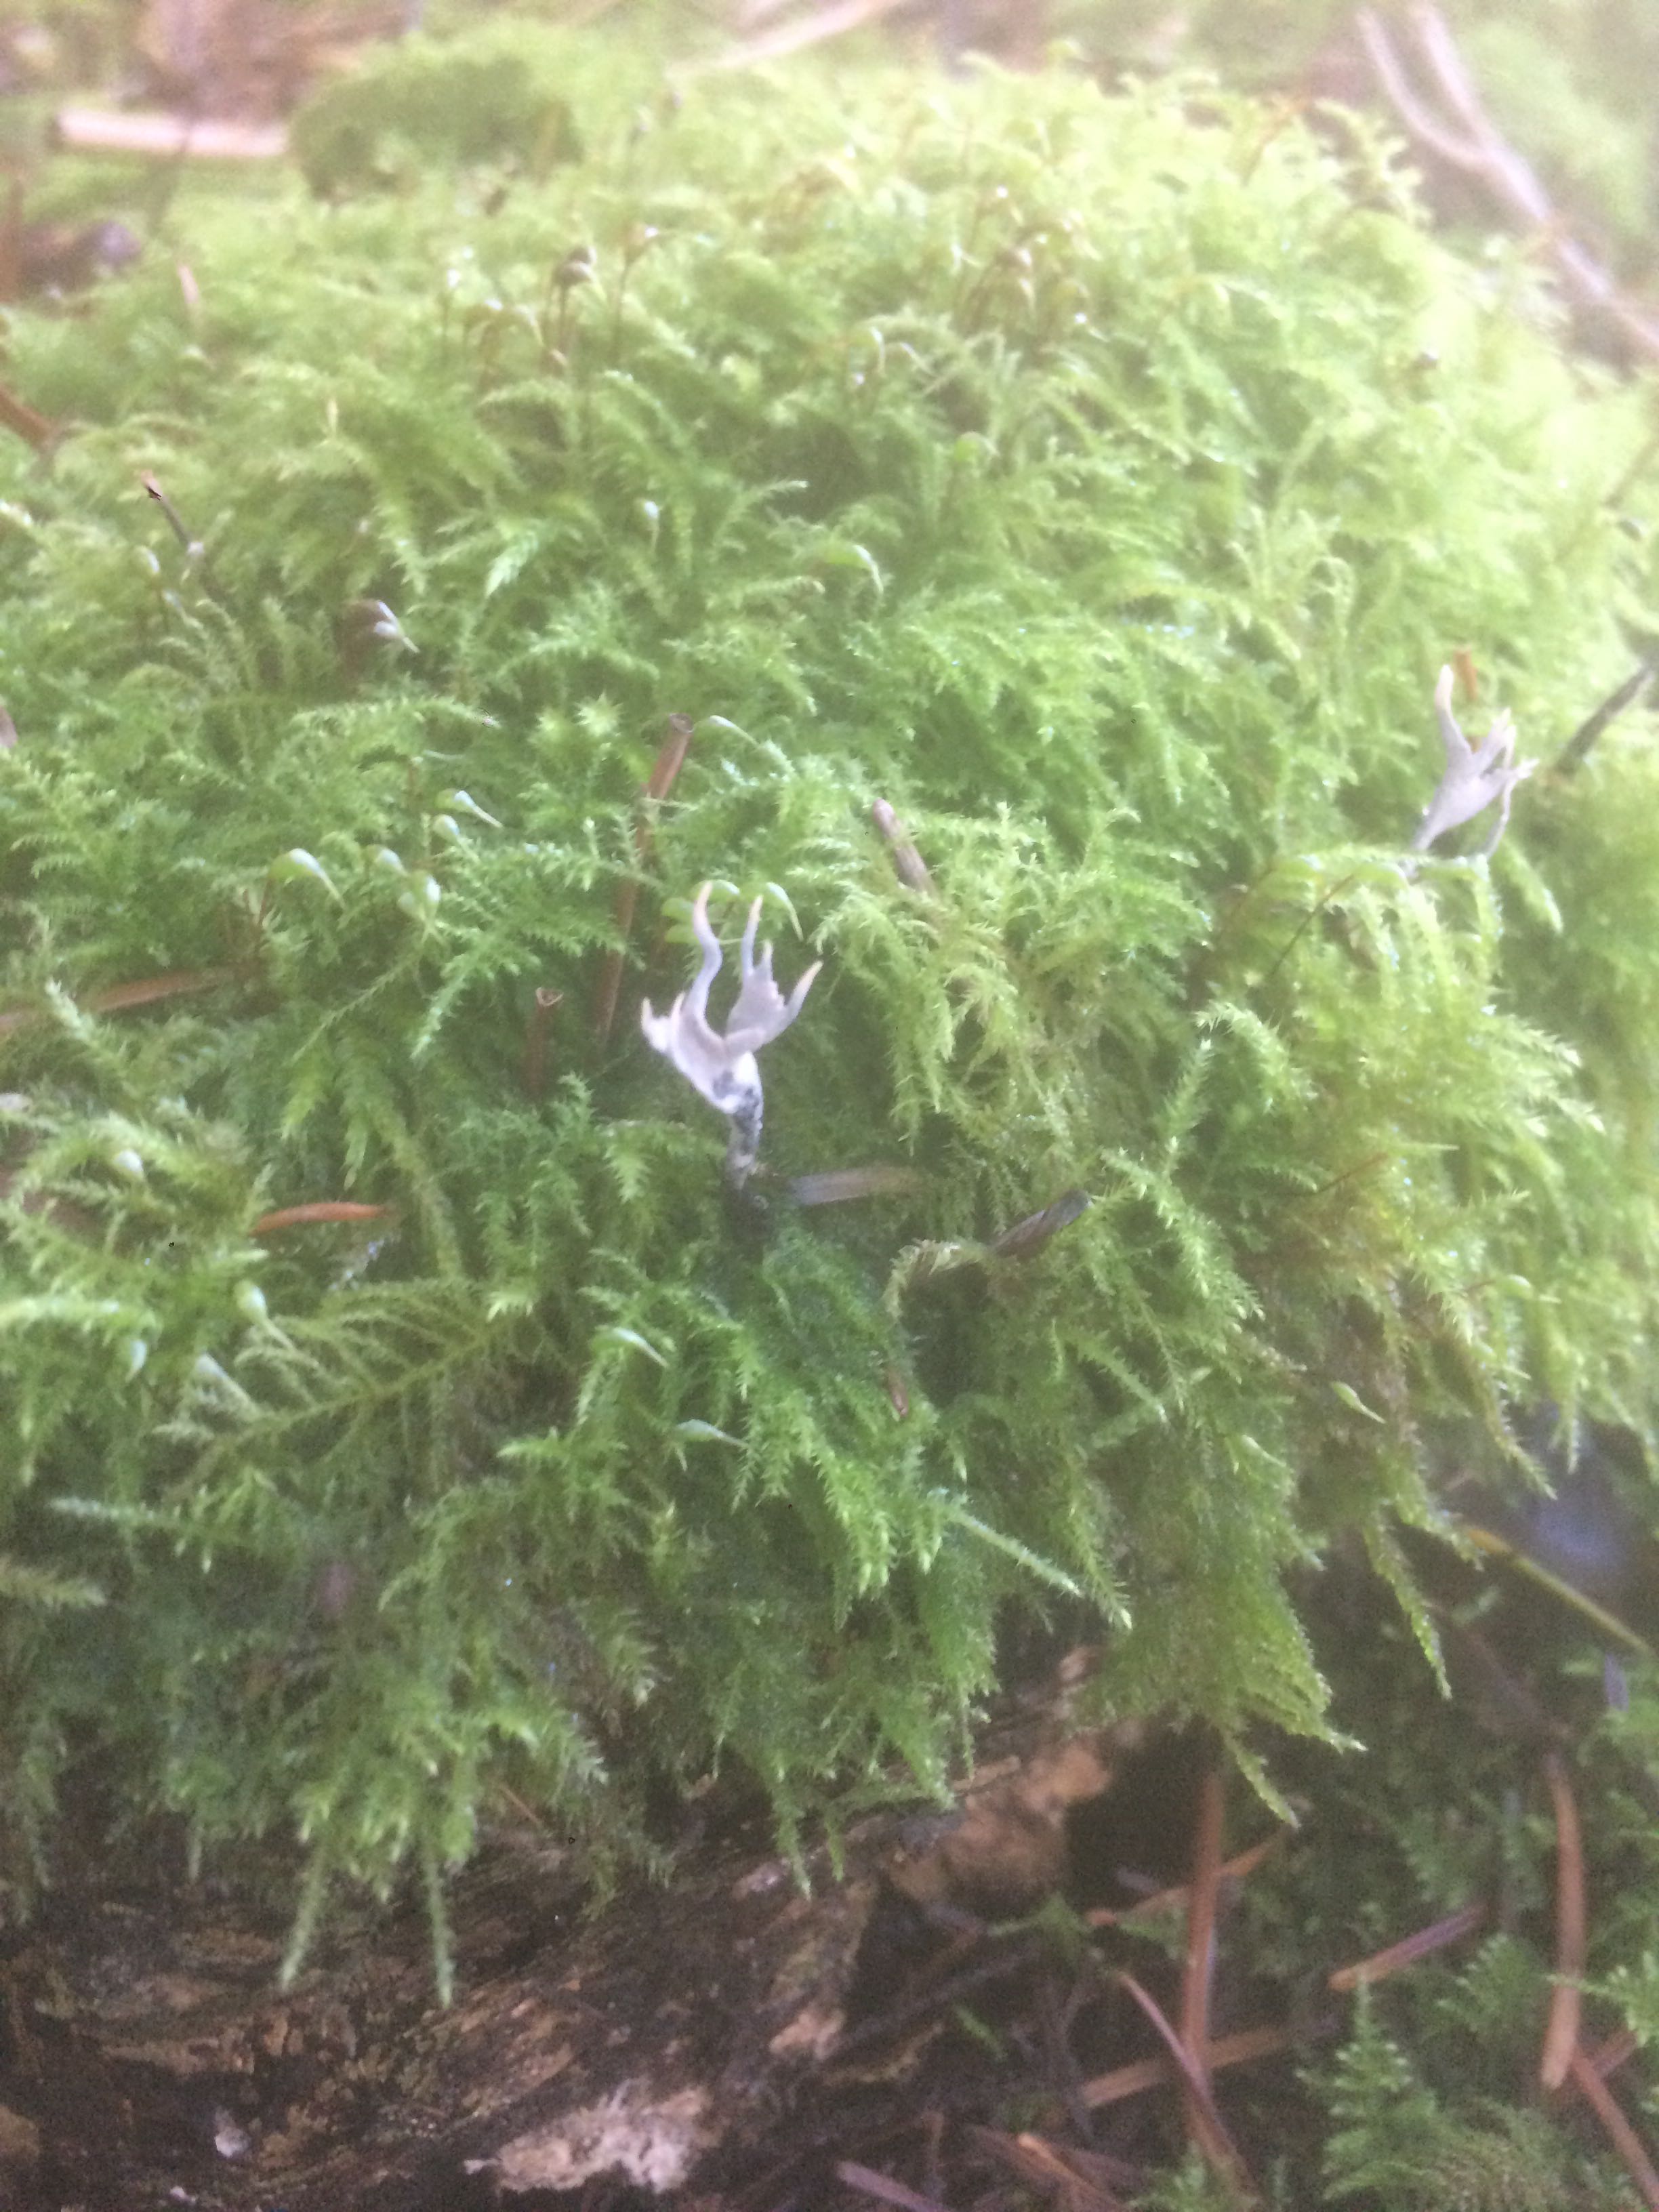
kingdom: Fungi
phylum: Ascomycota
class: Sordariomycetes
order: Xylariales
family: Xylariaceae
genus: Xylaria
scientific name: Xylaria hypoxylon
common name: grenet stødsvamp
